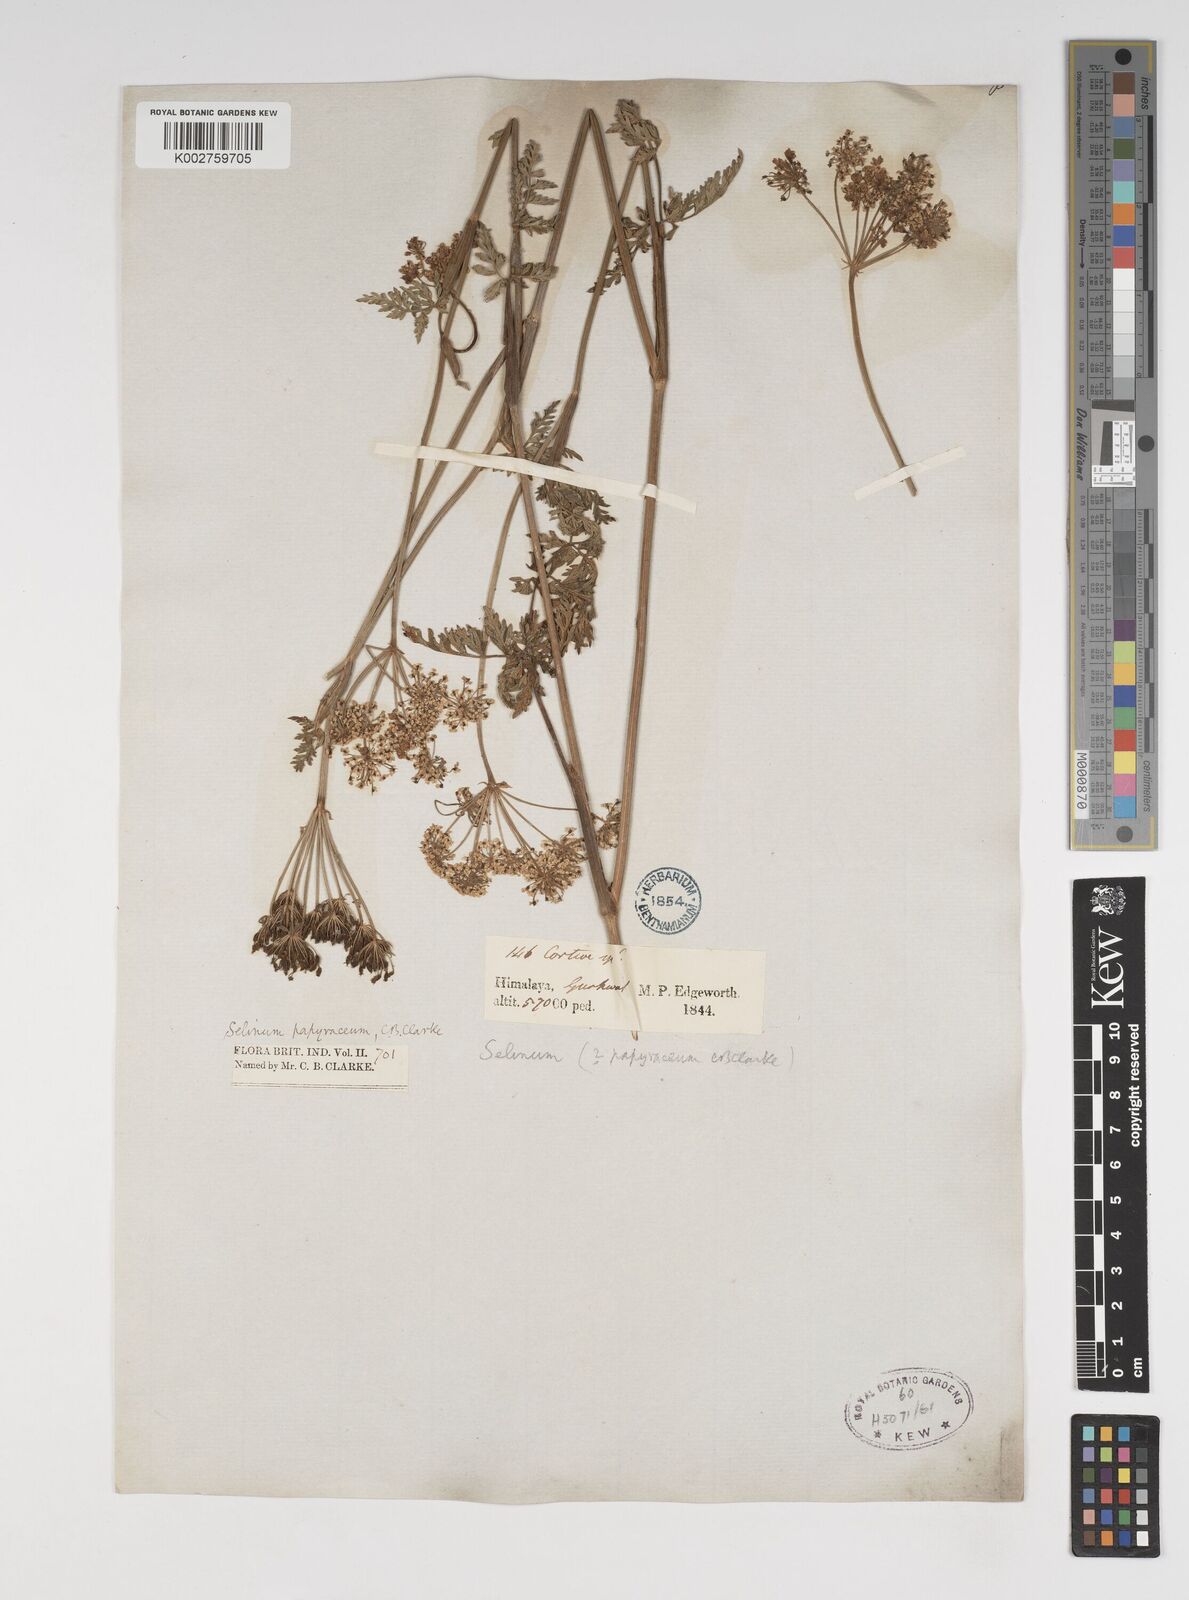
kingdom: Plantae
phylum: Tracheophyta
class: Magnoliopsida
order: Apiales
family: Apiaceae
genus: Conioselinum
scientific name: Conioselinum tataricum
